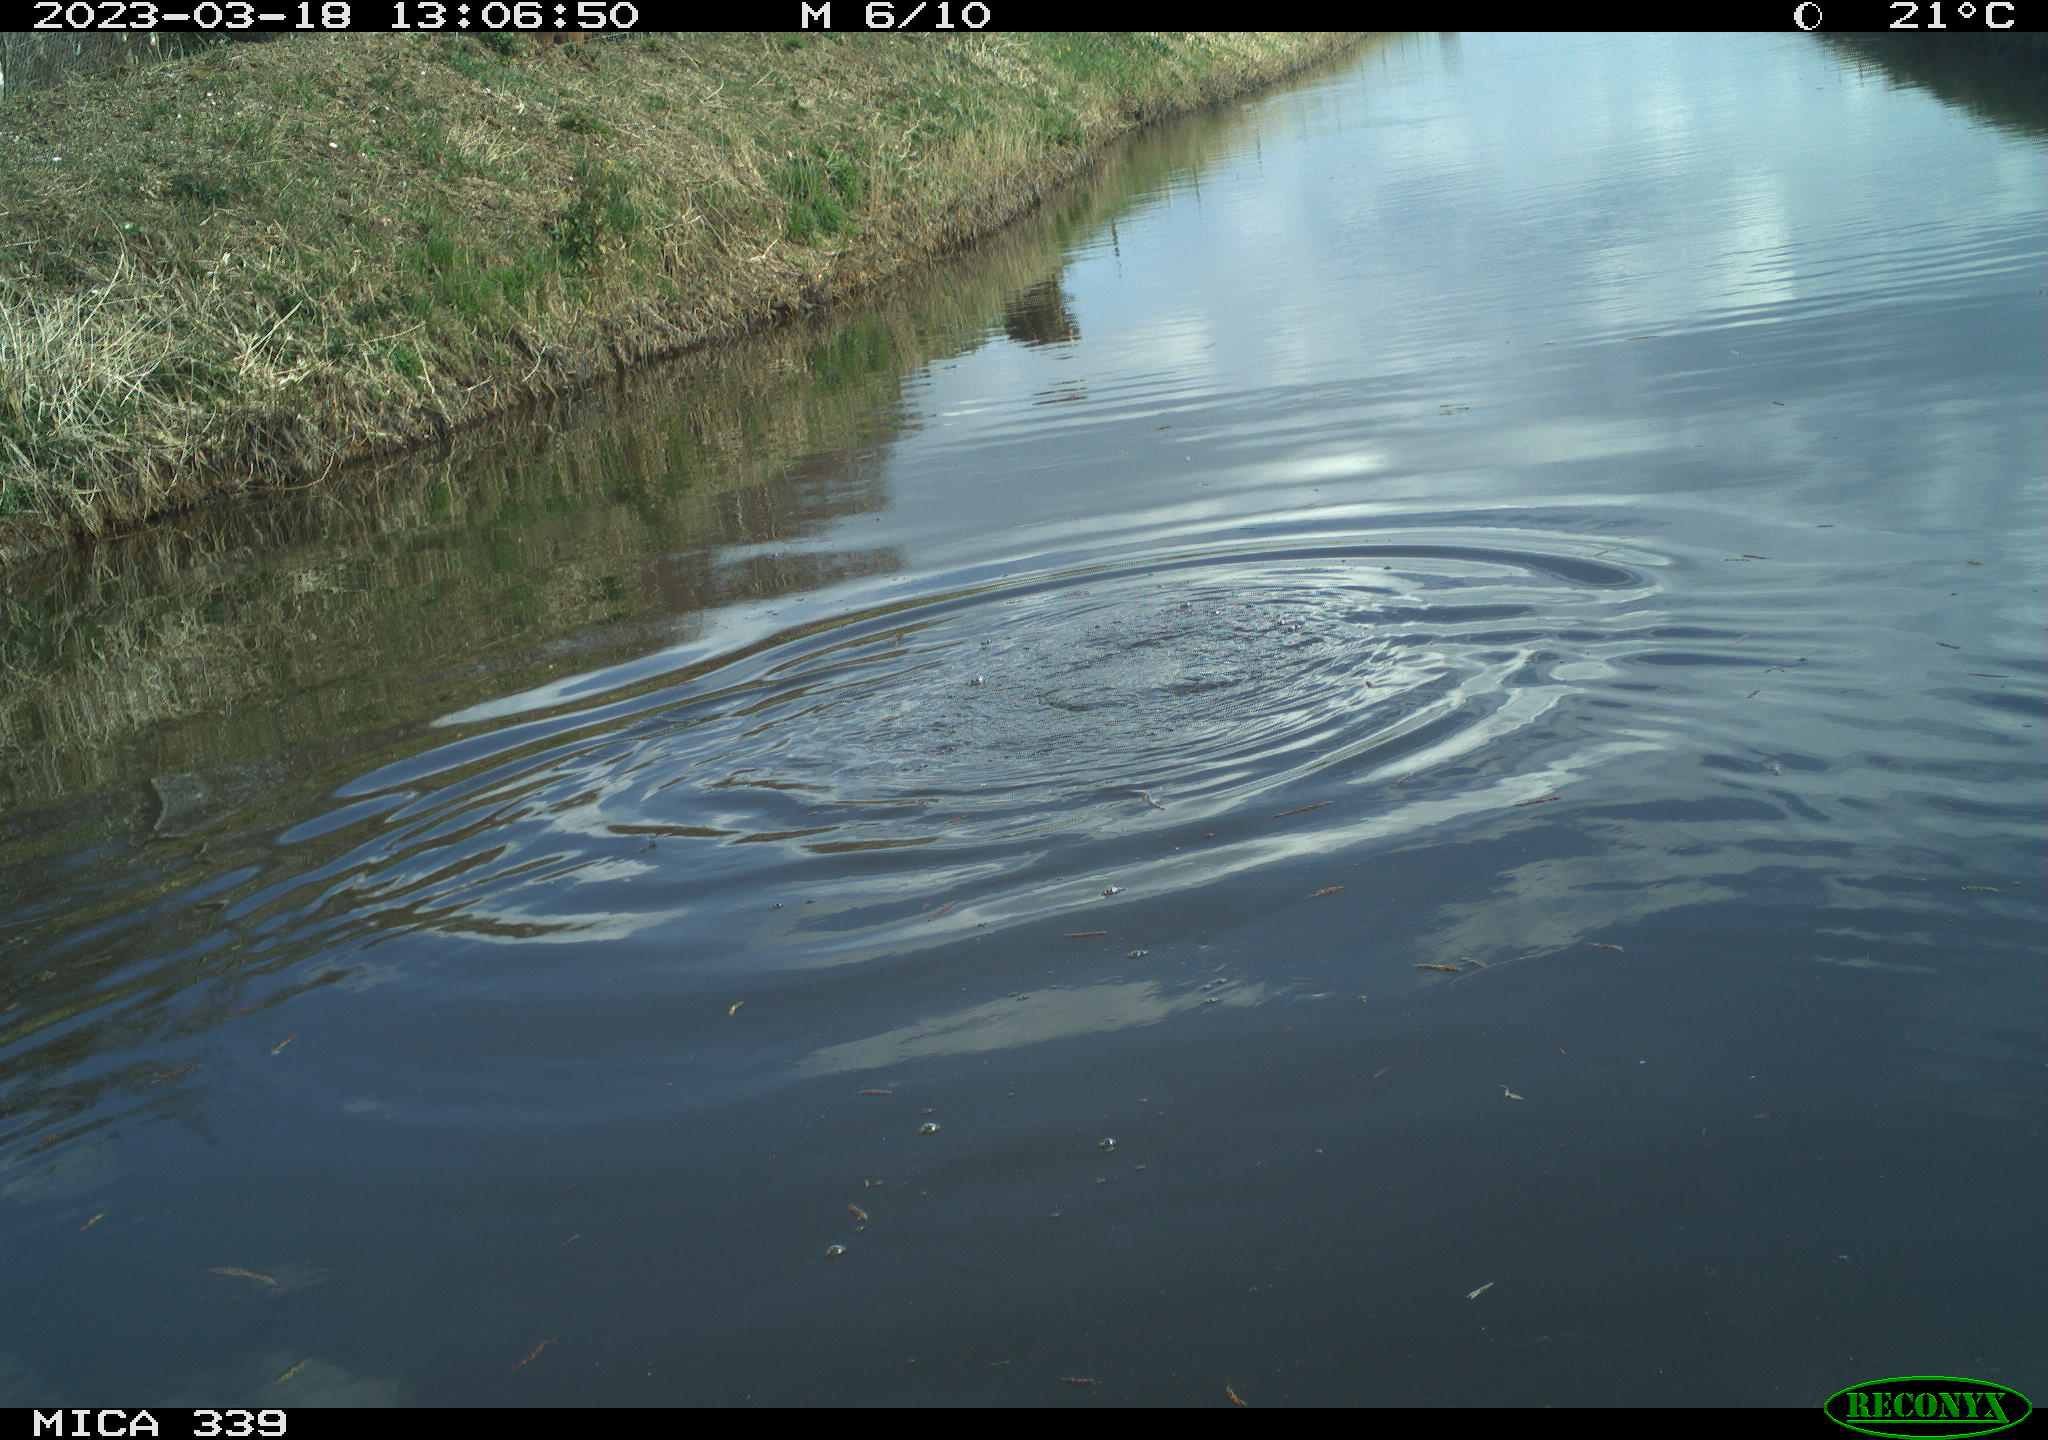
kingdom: Animalia
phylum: Chordata
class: Aves
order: Suliformes
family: Phalacrocoracidae
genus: Phalacrocorax
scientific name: Phalacrocorax carbo
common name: Great cormorant
